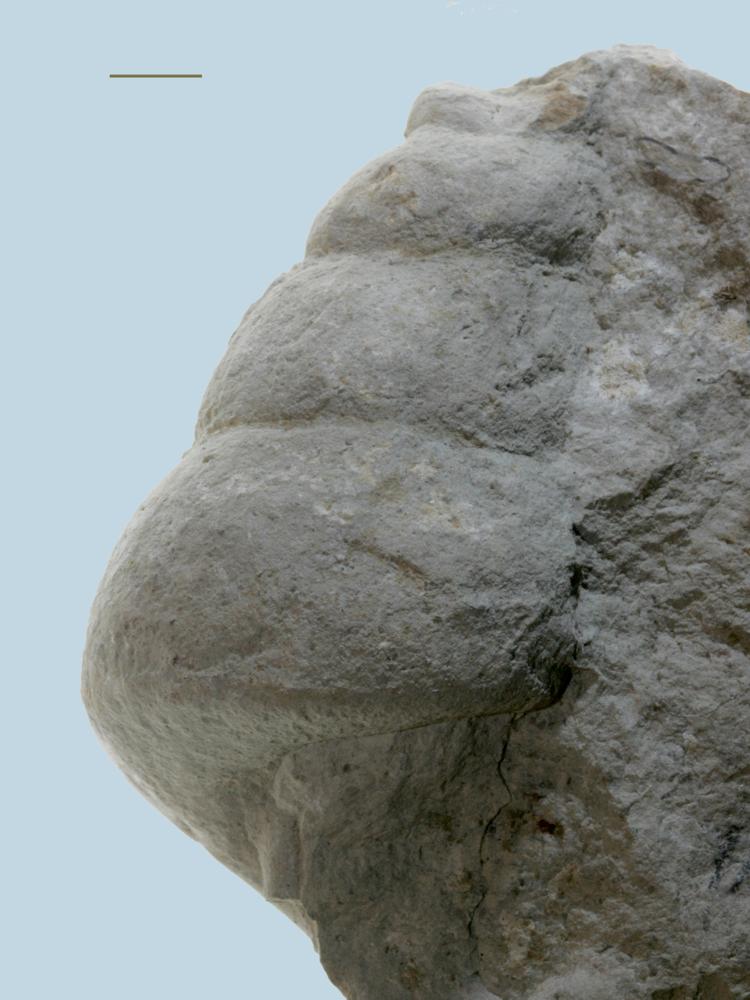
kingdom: Animalia
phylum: Mollusca
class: Gastropoda
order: Pleurotomariida
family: Murchisoniidae
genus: Murchisonia
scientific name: Murchisonia
